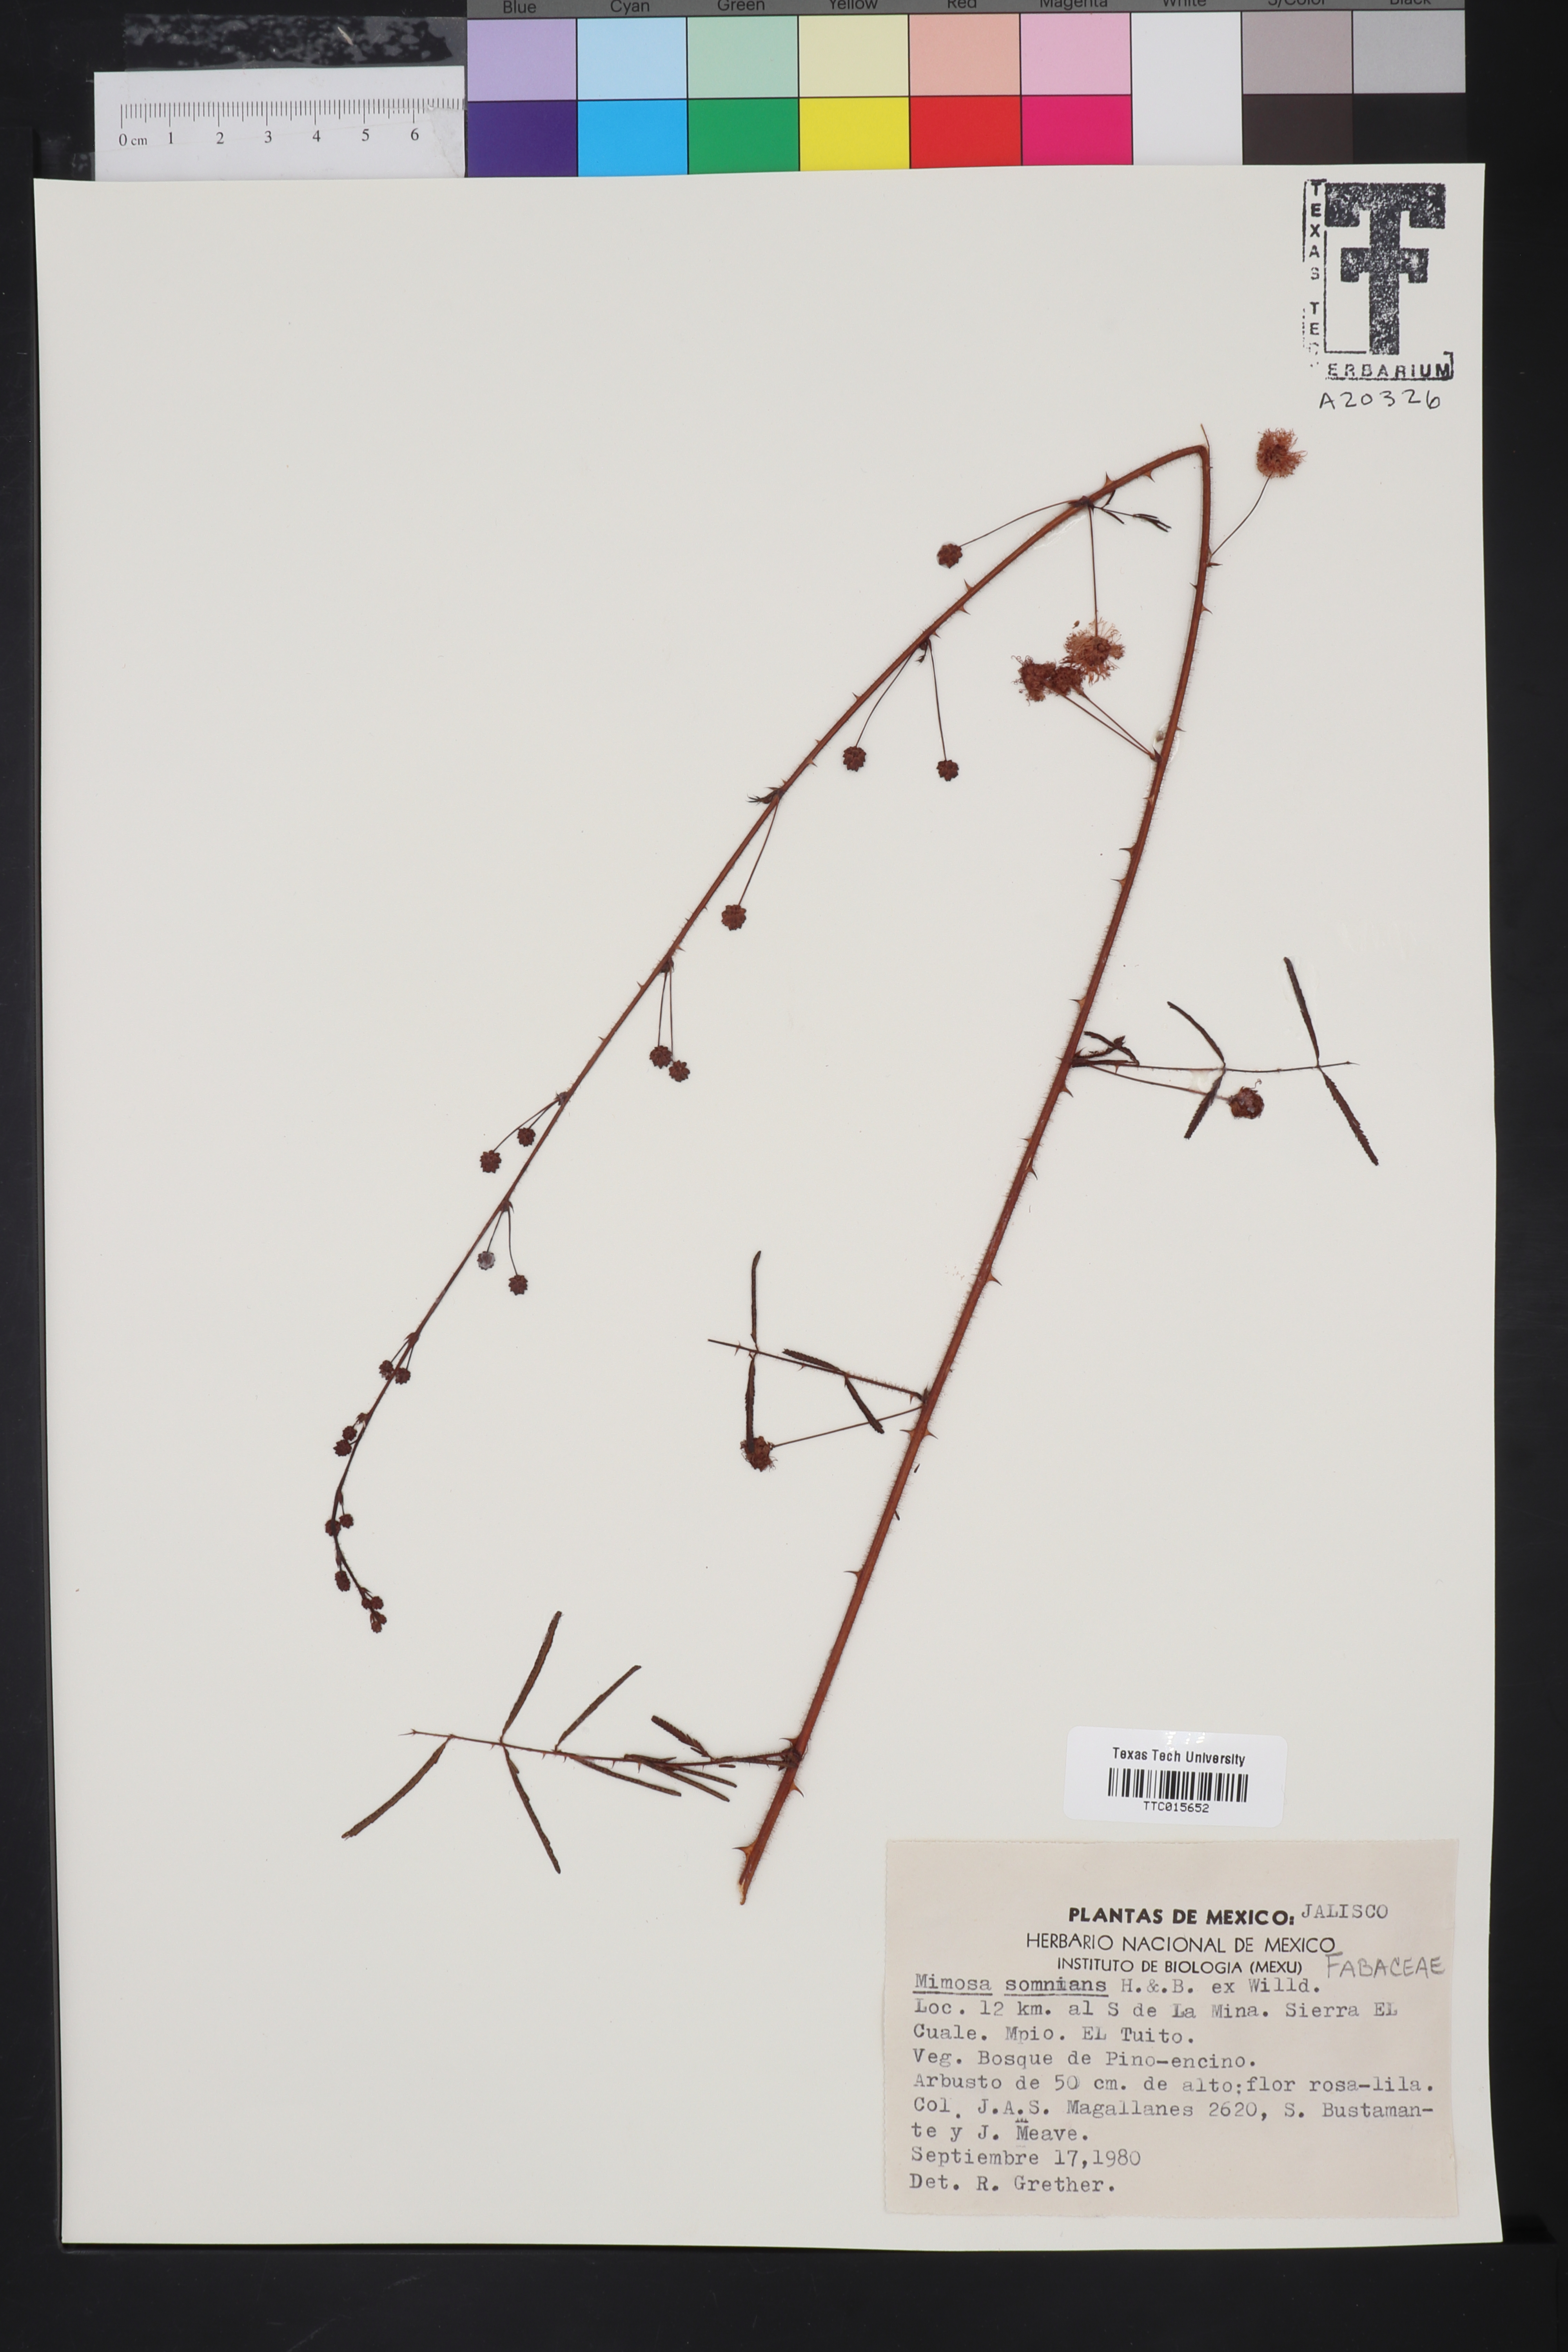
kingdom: Plantae
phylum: Tracheophyta
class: Magnoliopsida
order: Fabales
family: Fabaceae
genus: Mimosa
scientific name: Mimosa somnians
